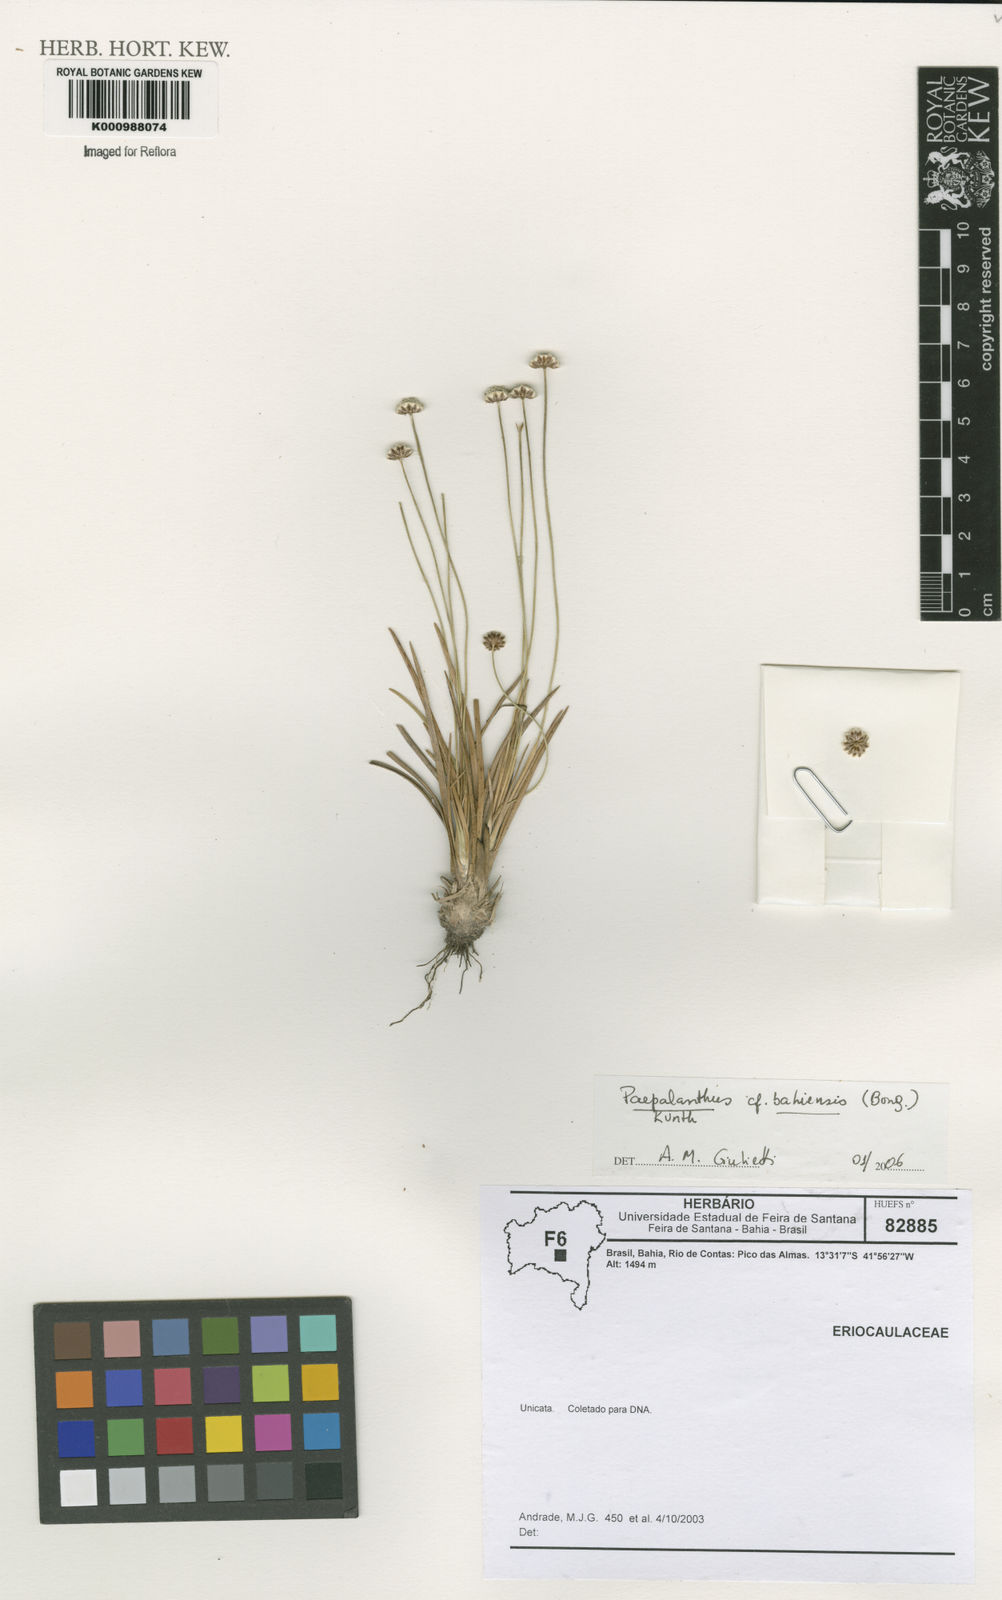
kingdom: Plantae
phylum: Tracheophyta
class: Liliopsida
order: Poales
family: Eriocaulaceae
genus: Paepalanthus
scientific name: Paepalanthus bahiensis
